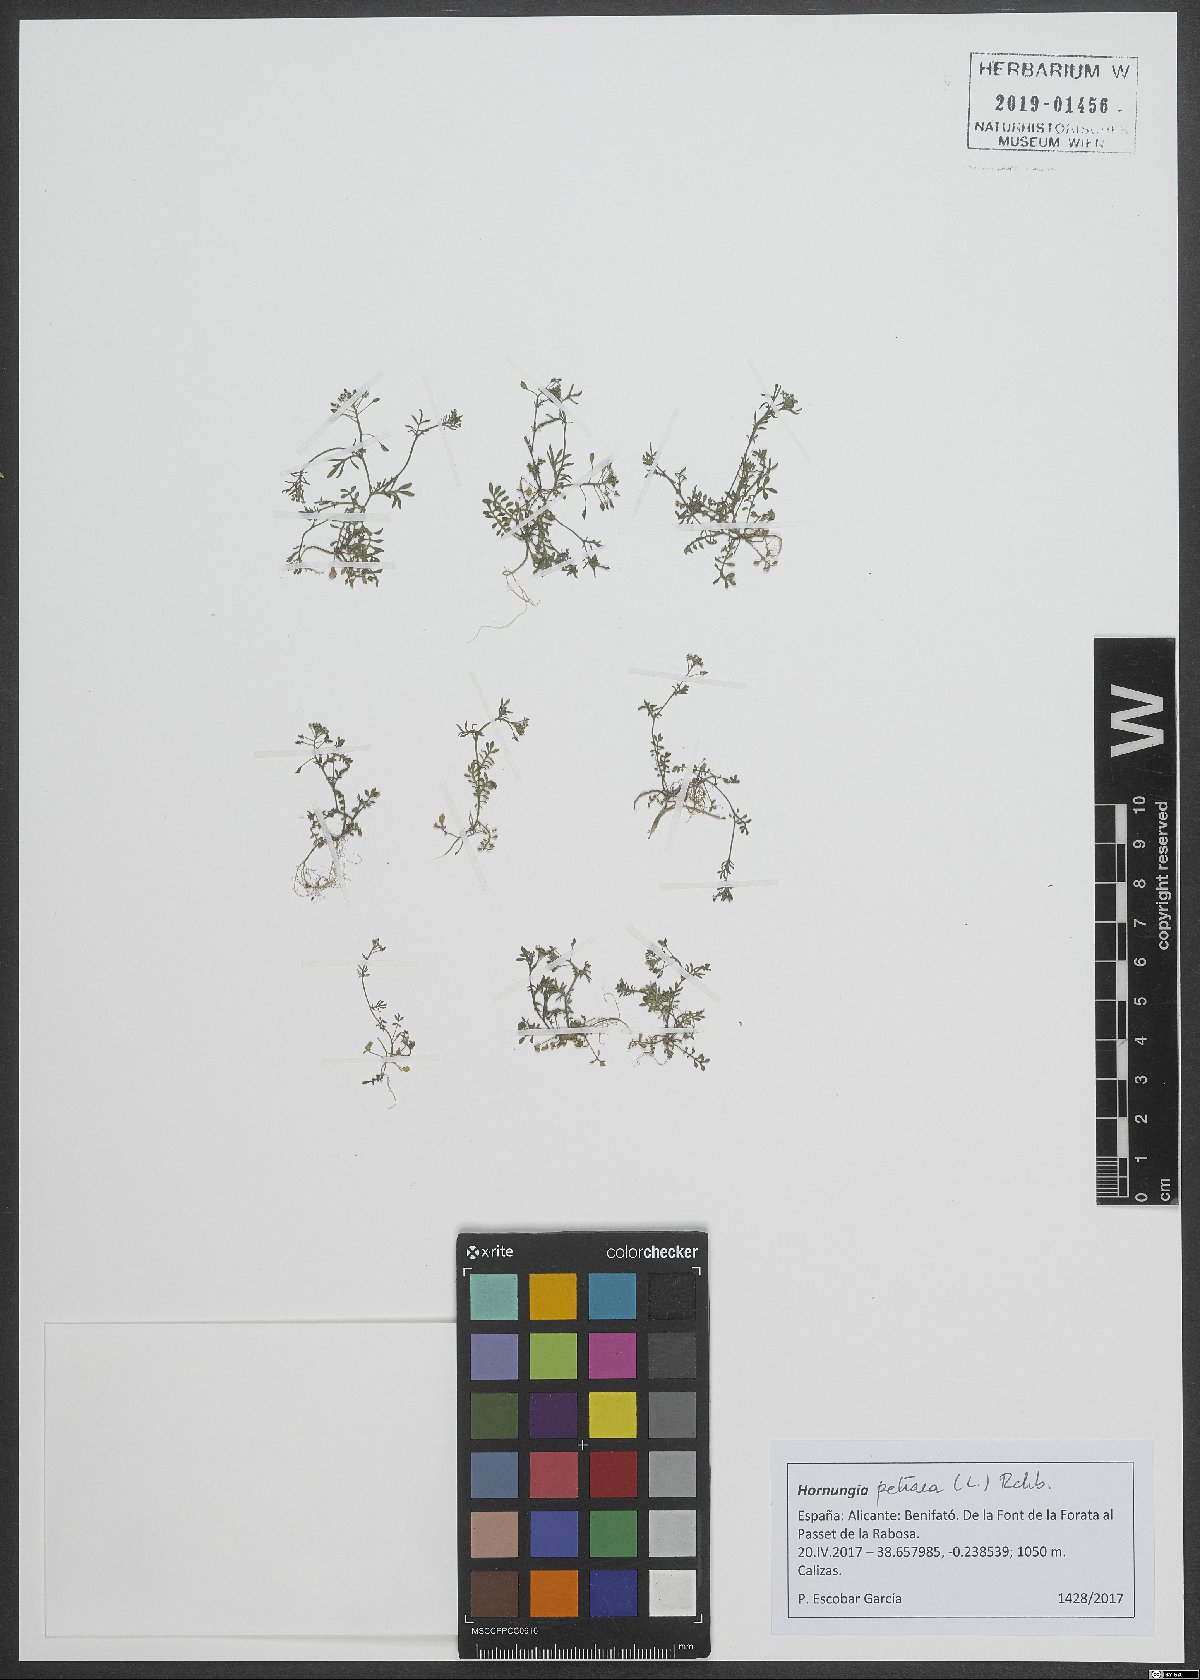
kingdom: Plantae
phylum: Tracheophyta
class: Magnoliopsida
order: Brassicales
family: Brassicaceae
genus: Hornungia
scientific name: Hornungia petraea
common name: Hutchinsia
